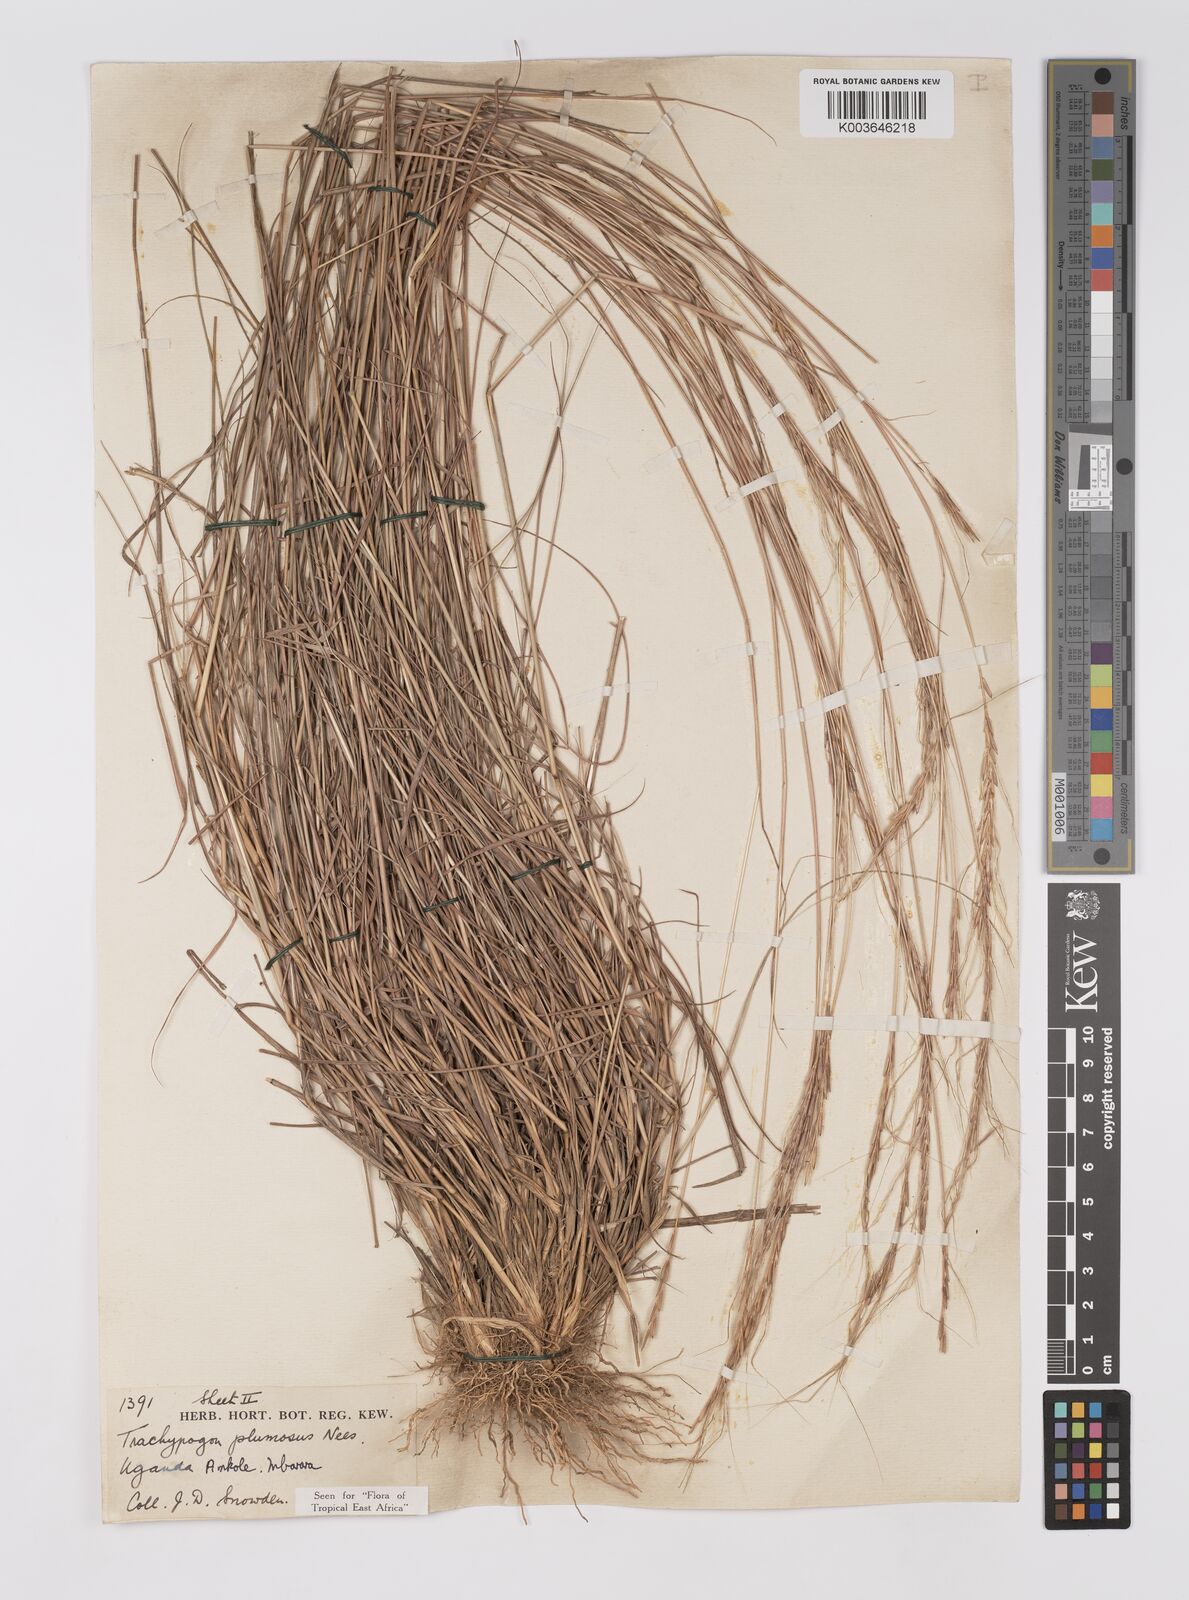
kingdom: Plantae
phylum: Tracheophyta
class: Liliopsida
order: Poales
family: Poaceae
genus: Trachypogon
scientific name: Trachypogon spicatus
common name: Crinkle-awn
